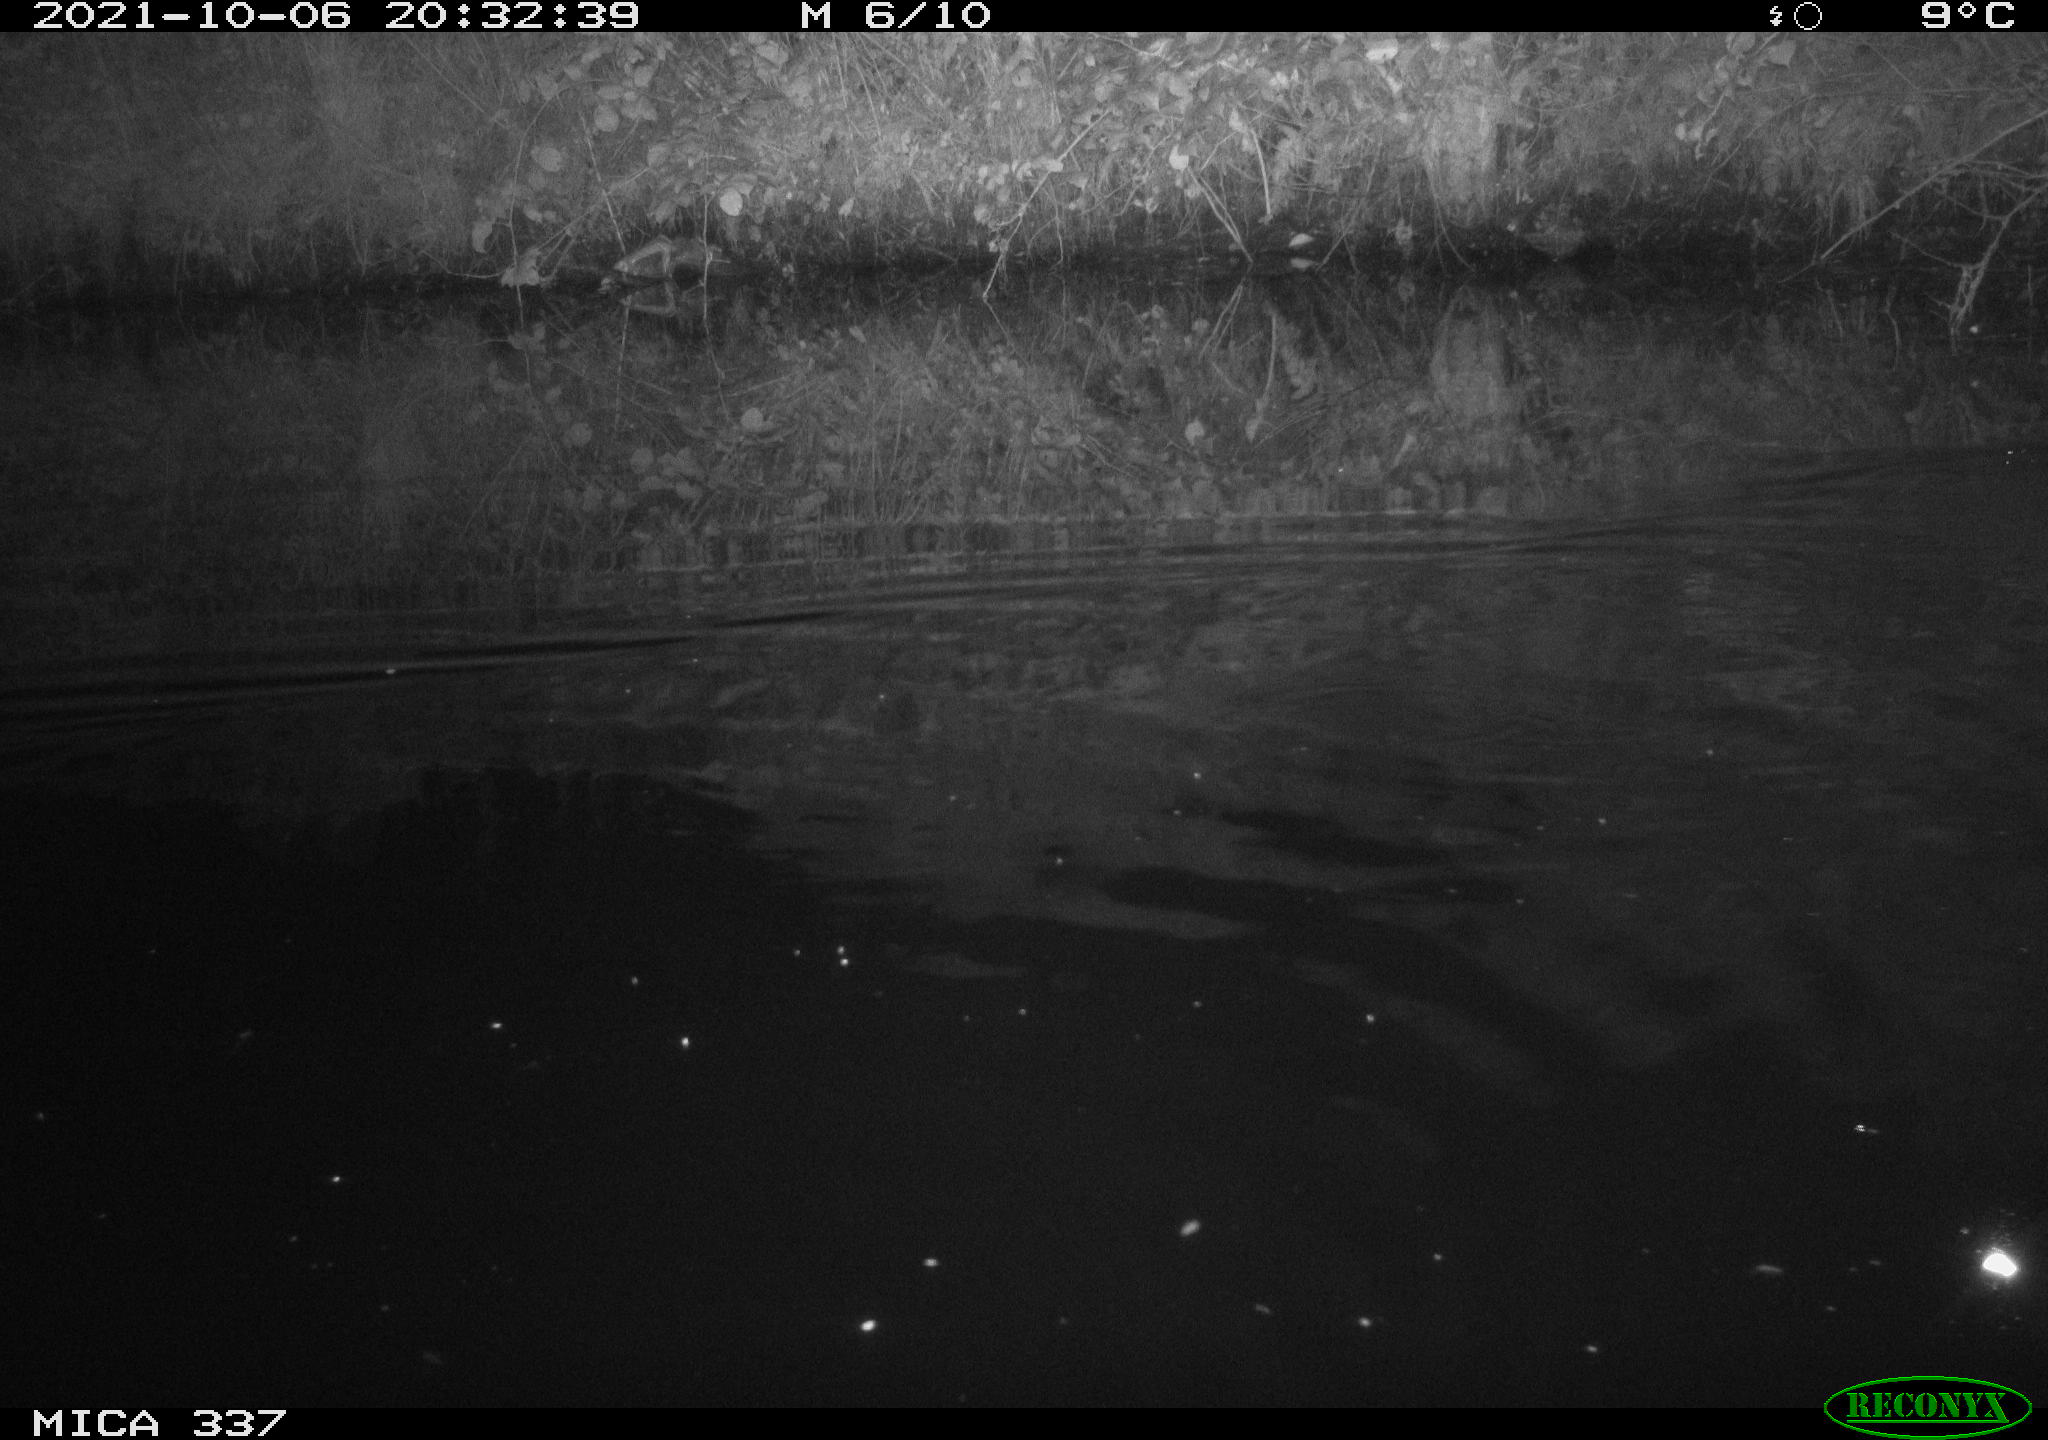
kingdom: Animalia
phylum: Chordata
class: Mammalia
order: Rodentia
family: Muridae
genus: Rattus
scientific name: Rattus norvegicus
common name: Brown rat
